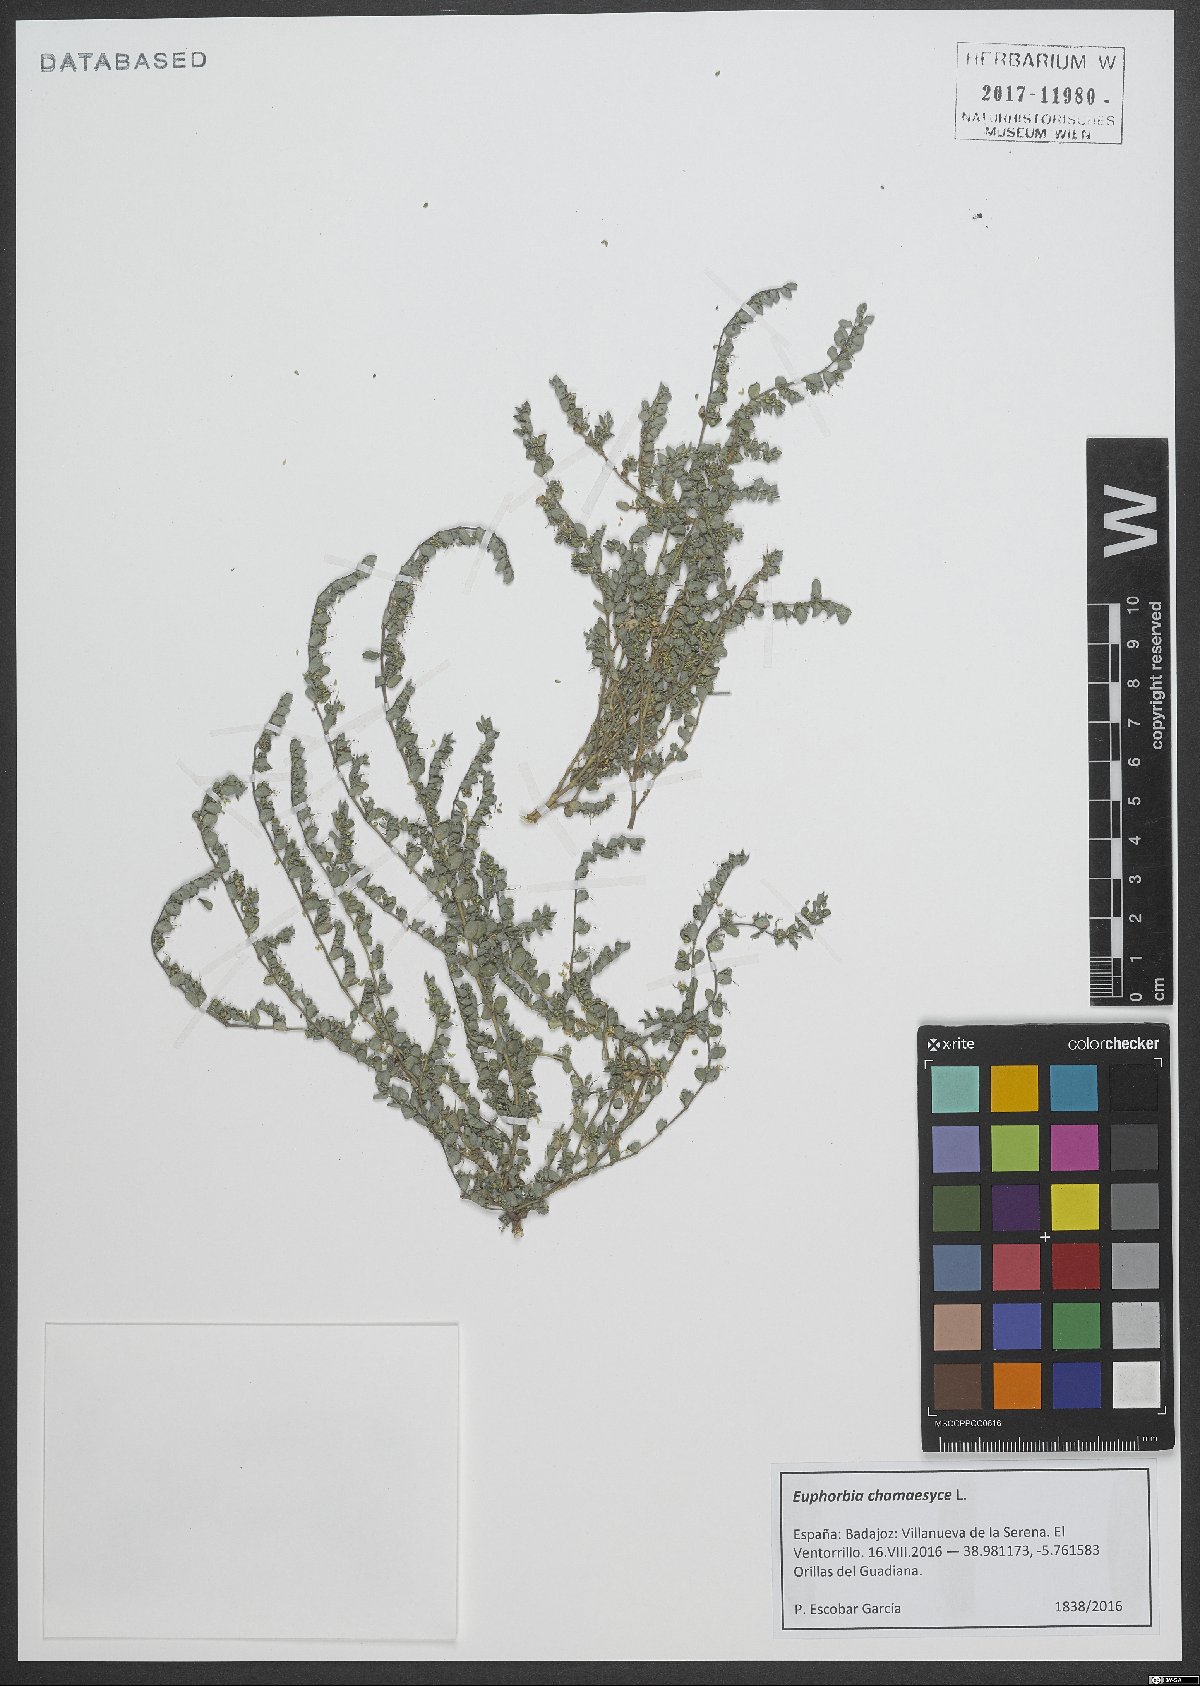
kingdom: Plantae
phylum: Tracheophyta
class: Magnoliopsida
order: Malpighiales
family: Euphorbiaceae
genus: Euphorbia
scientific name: Euphorbia chamaesyce
